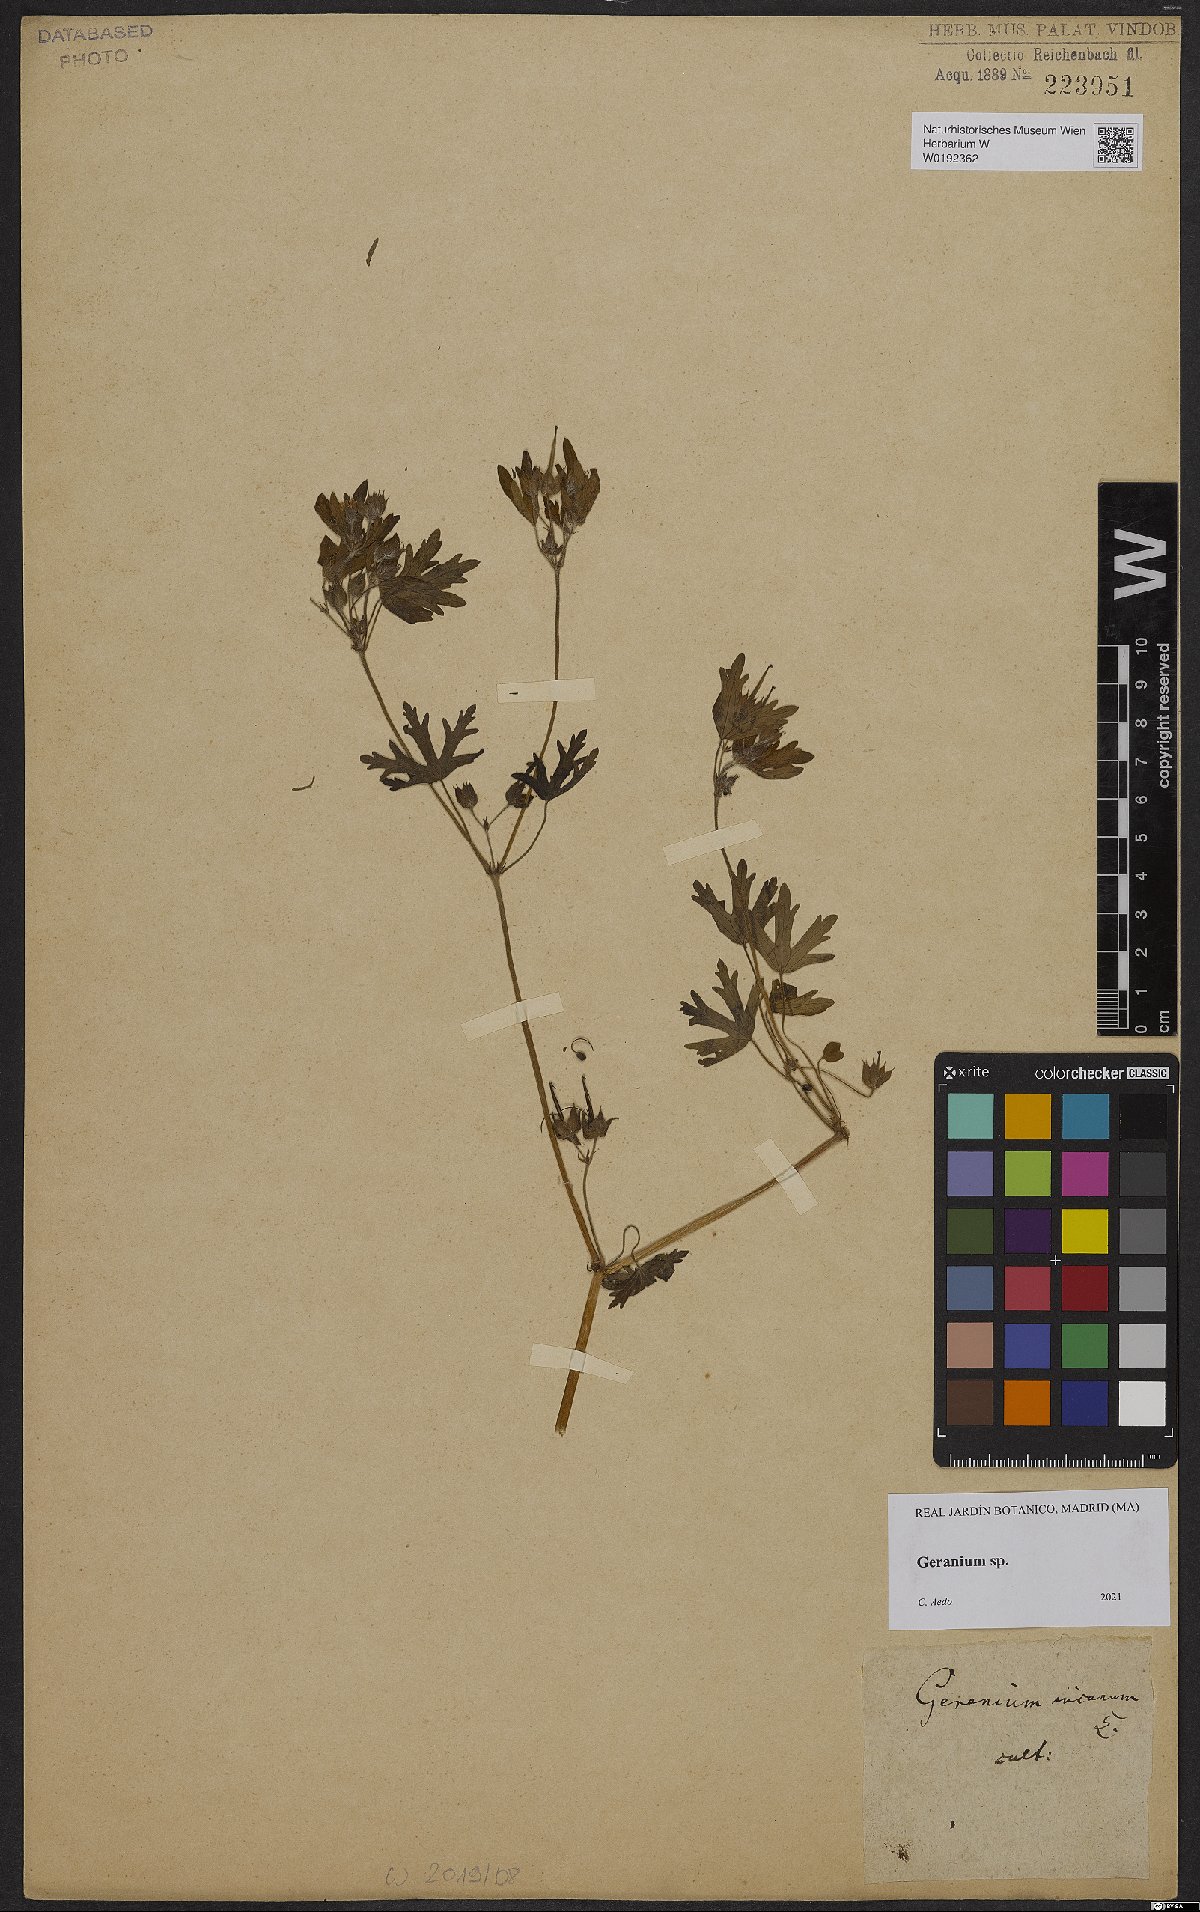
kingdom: Plantae
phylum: Tracheophyta
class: Magnoliopsida
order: Geraniales
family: Geraniaceae
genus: Geranium
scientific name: Geranium
